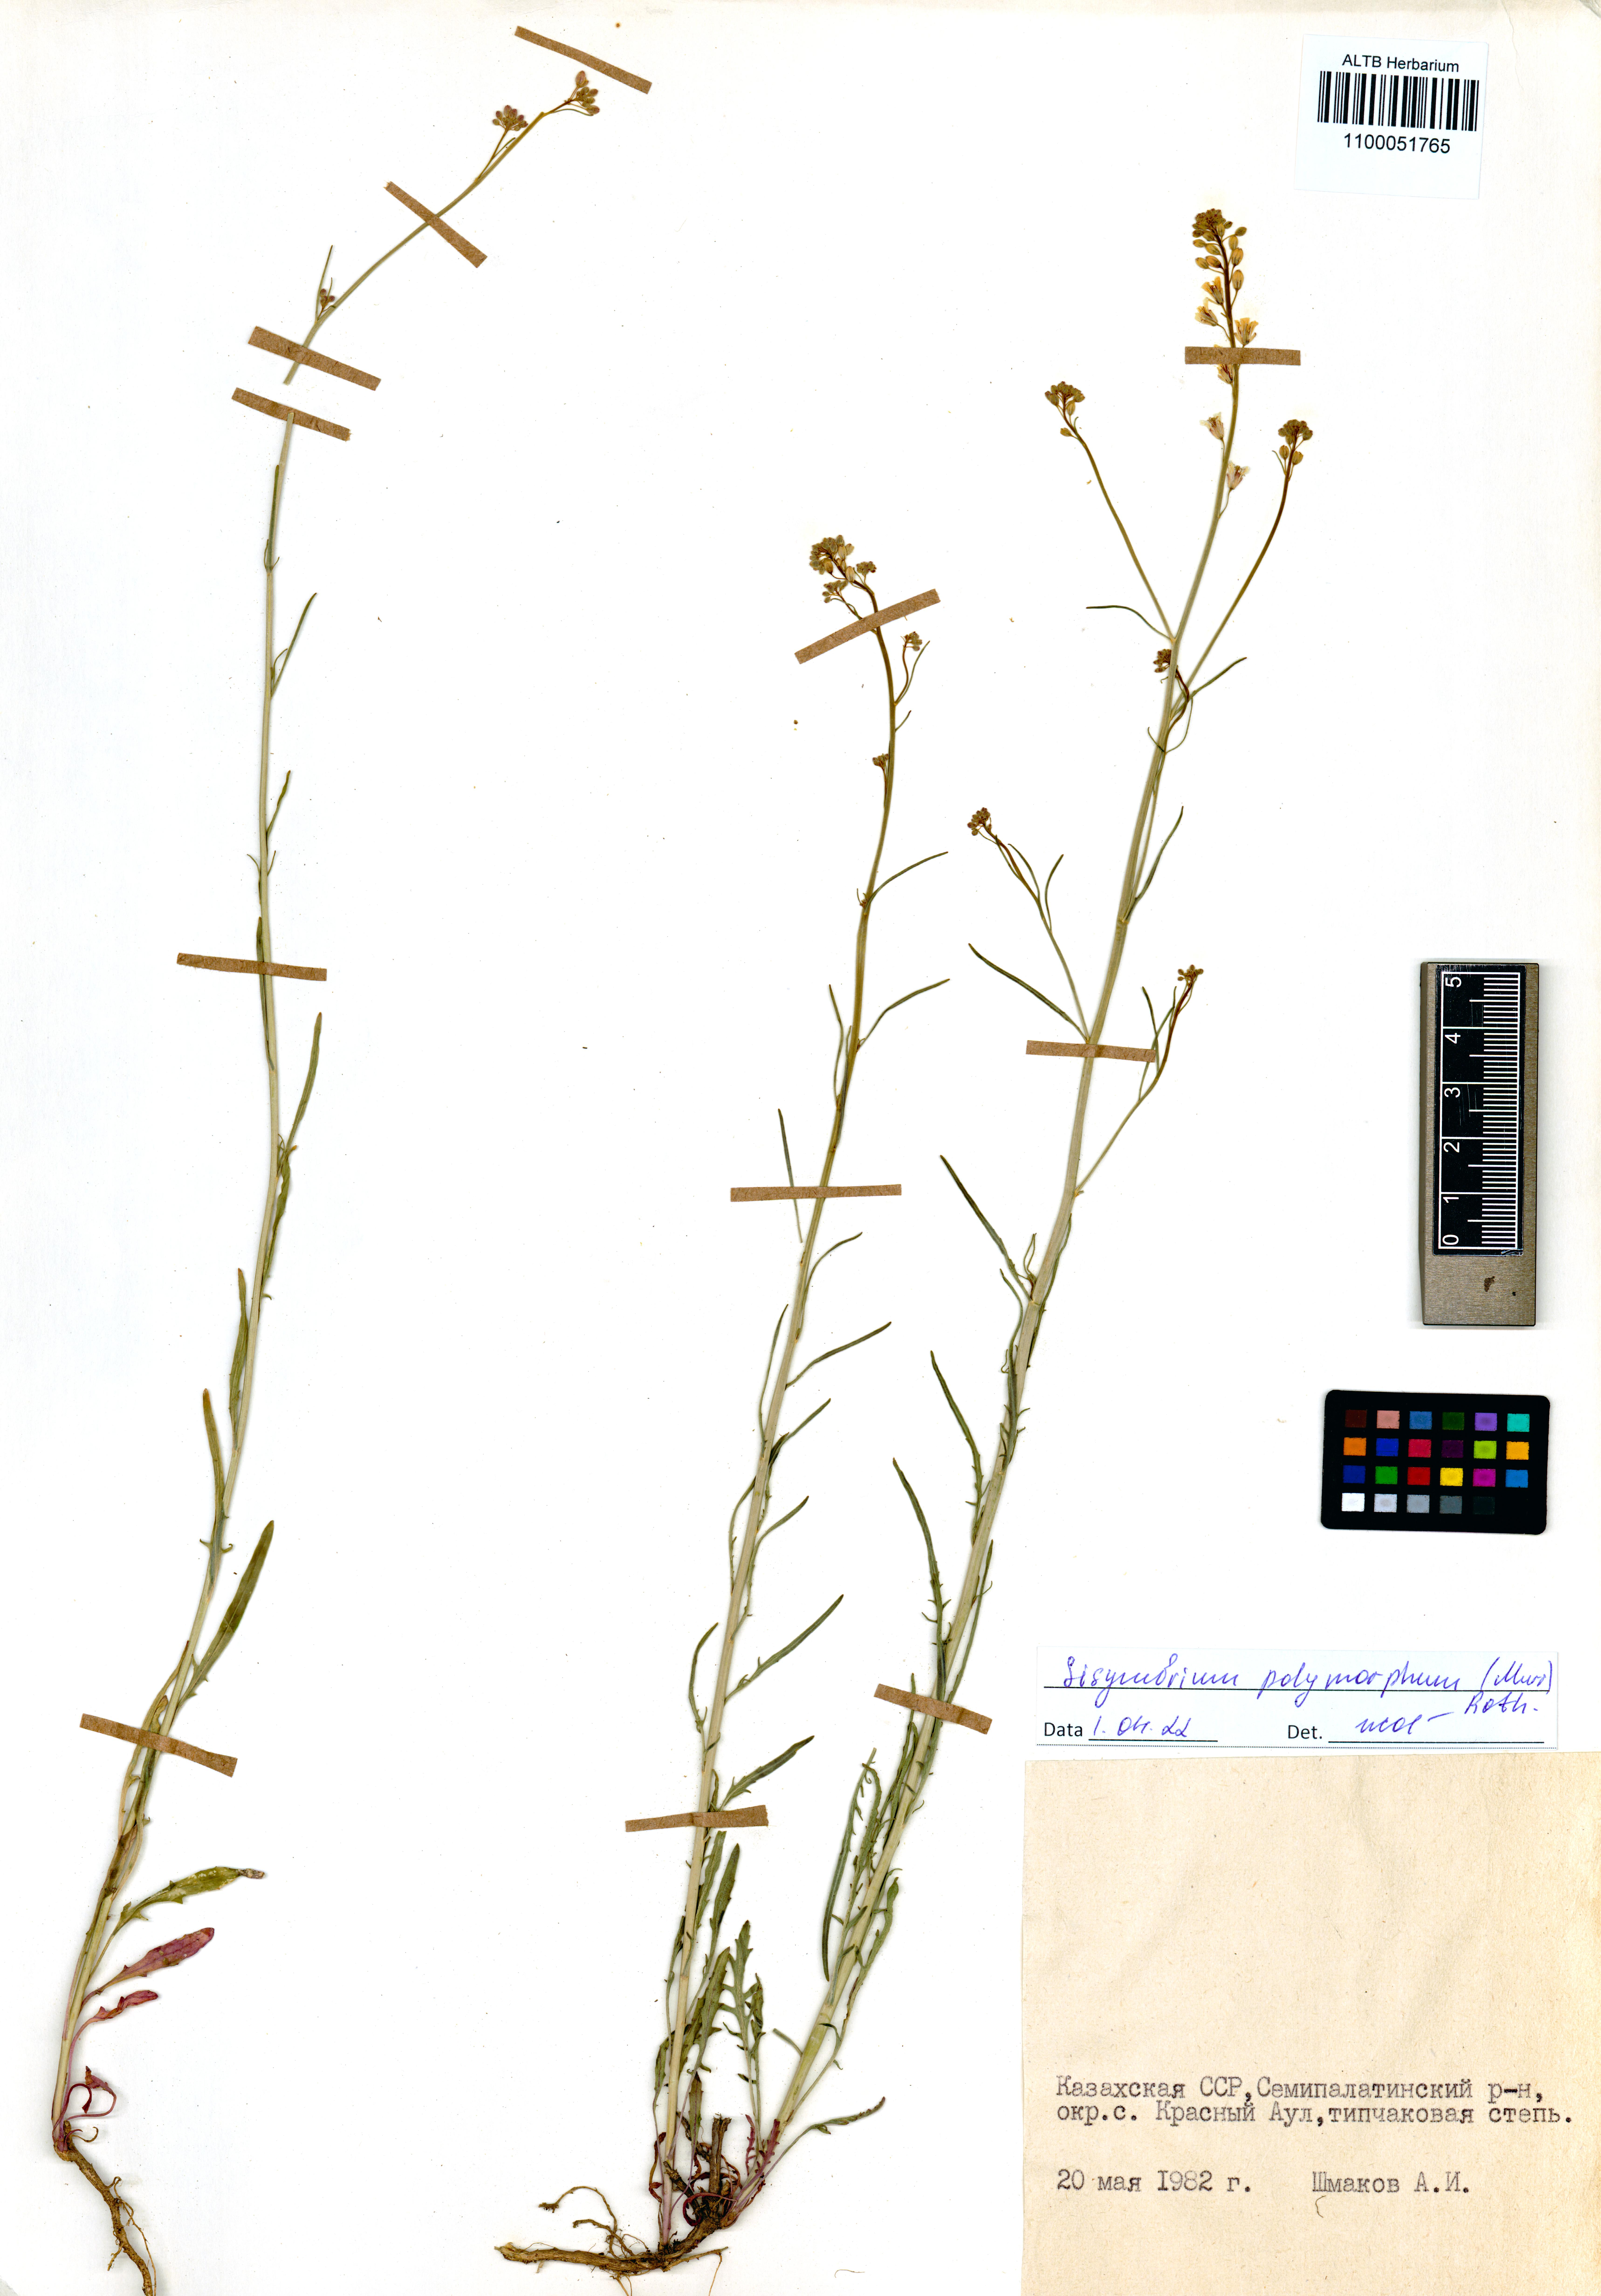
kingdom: Plantae
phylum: Tracheophyta
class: Magnoliopsida
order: Brassicales
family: Brassicaceae
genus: Sisymbrium
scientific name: Sisymbrium polymorphum
